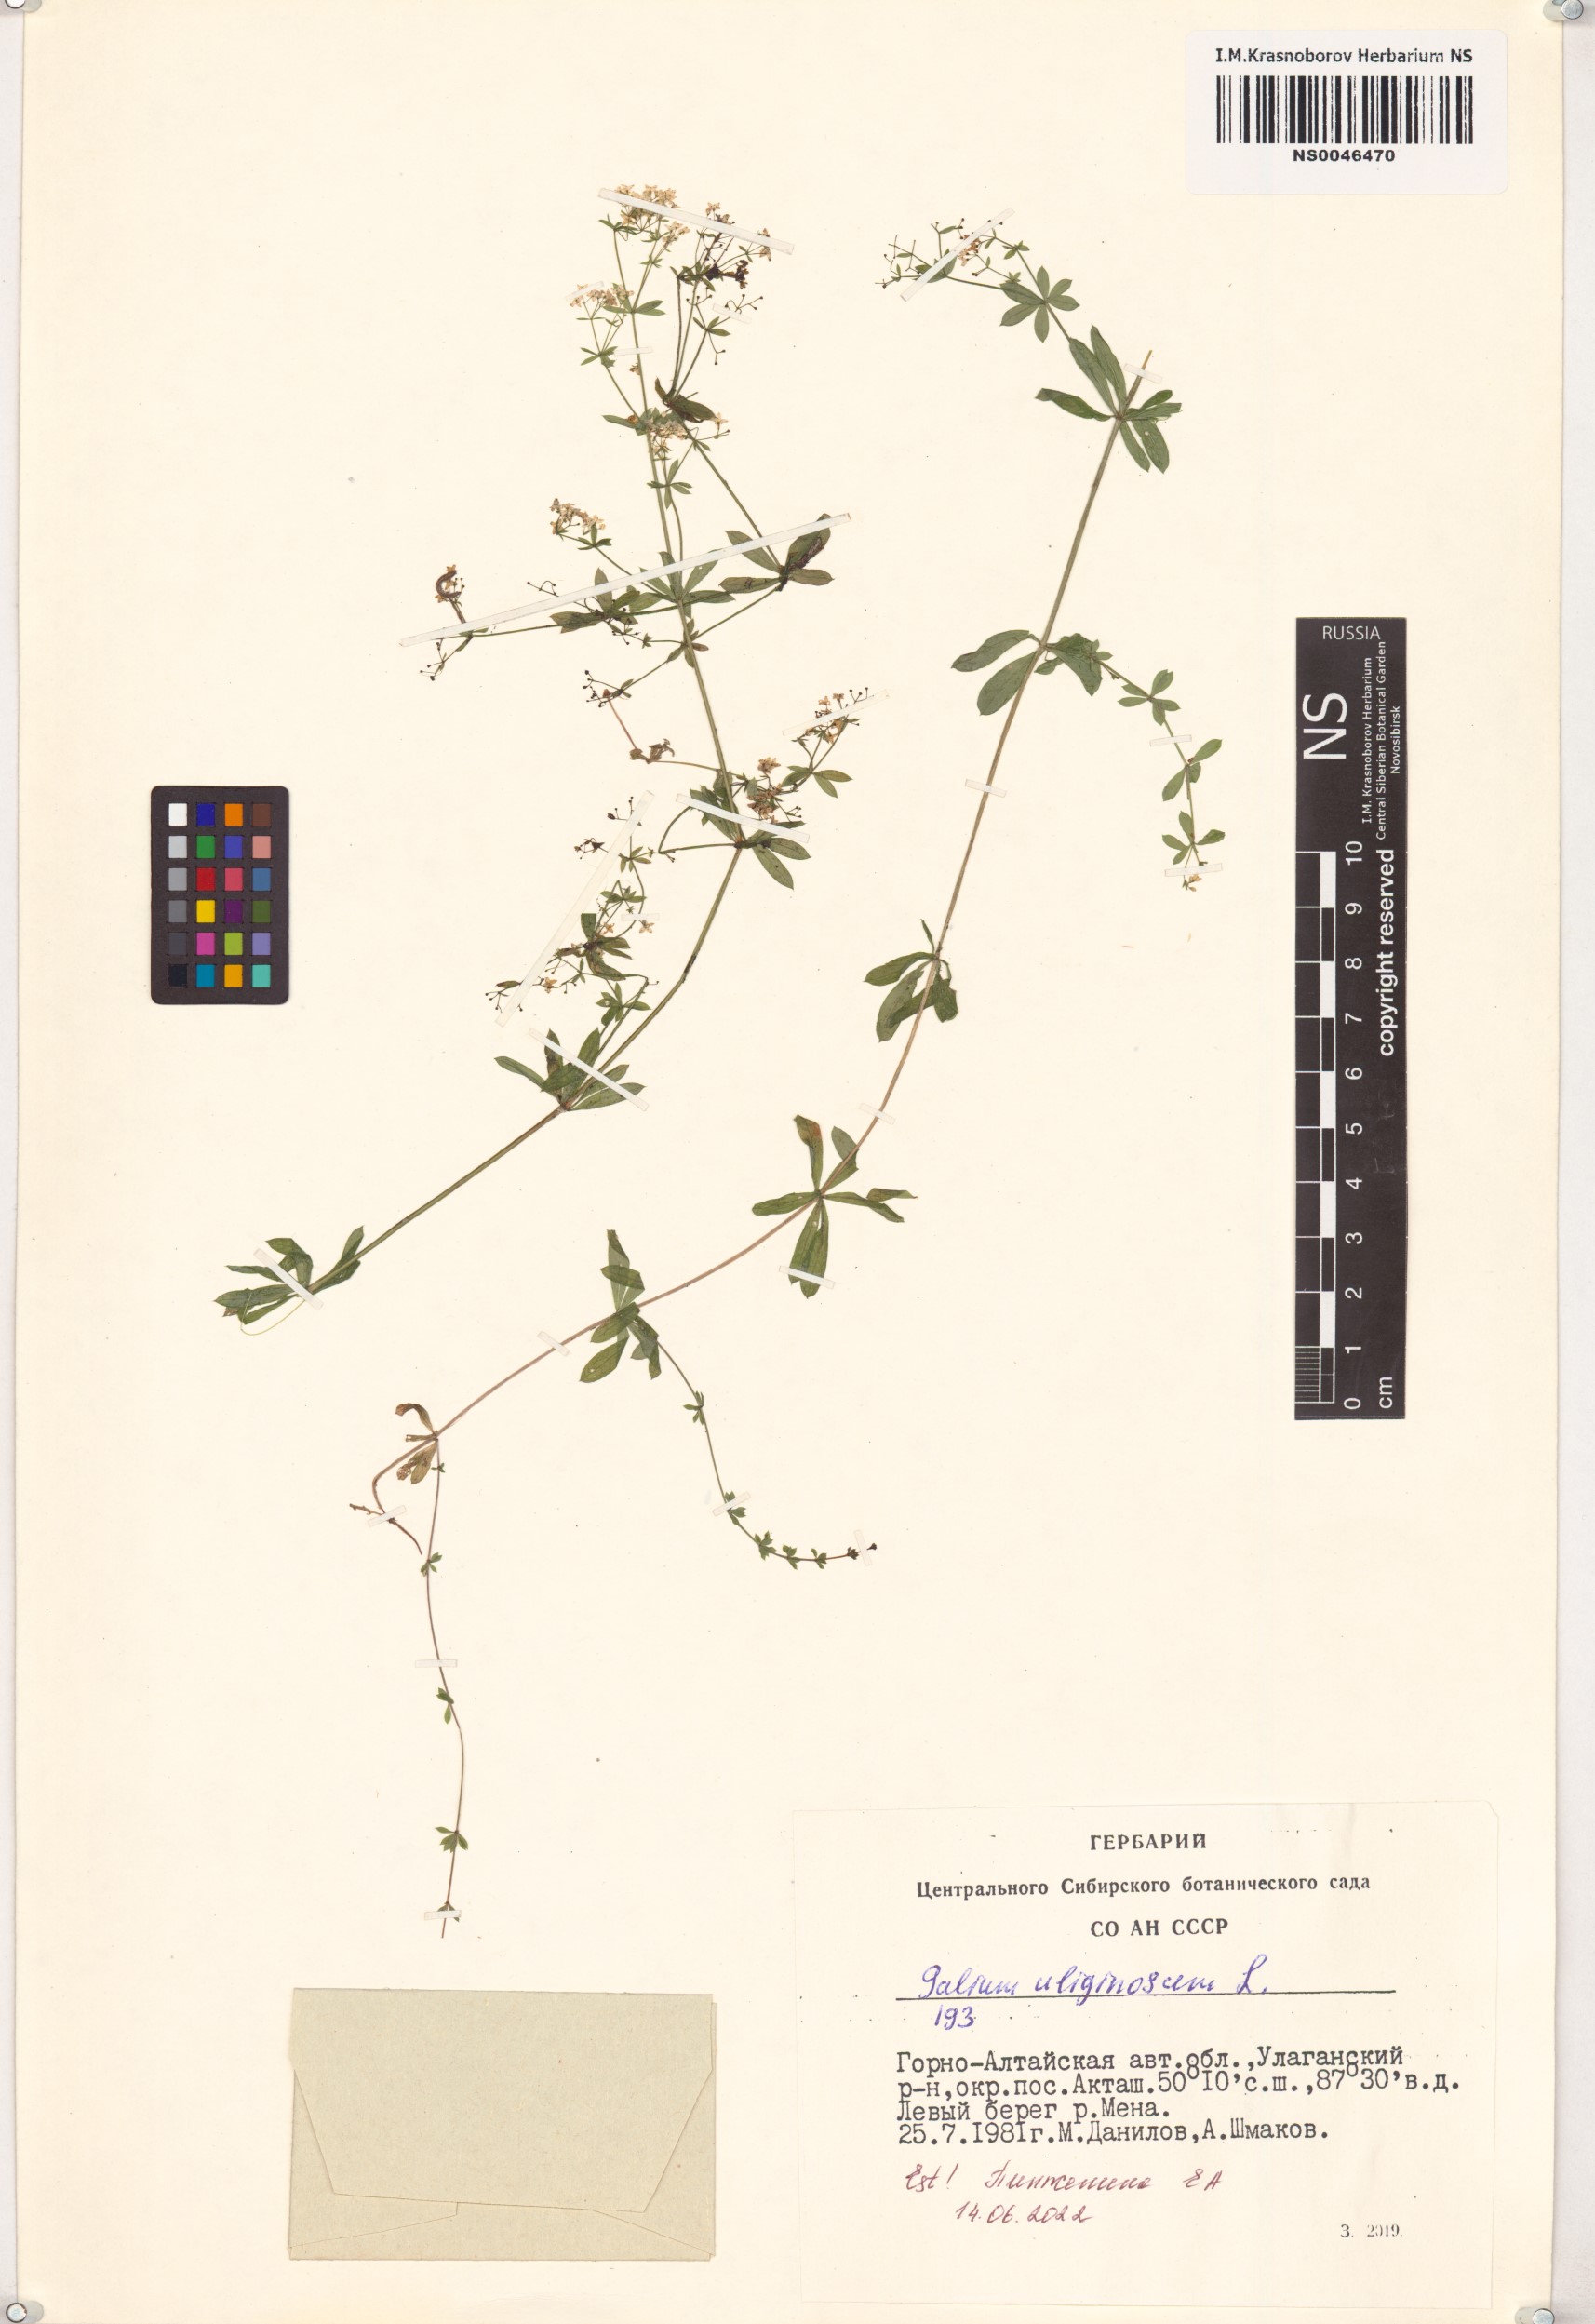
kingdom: Plantae
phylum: Tracheophyta
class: Magnoliopsida
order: Gentianales
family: Rubiaceae
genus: Galium
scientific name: Galium uliginosum
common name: Fen bedstraw
